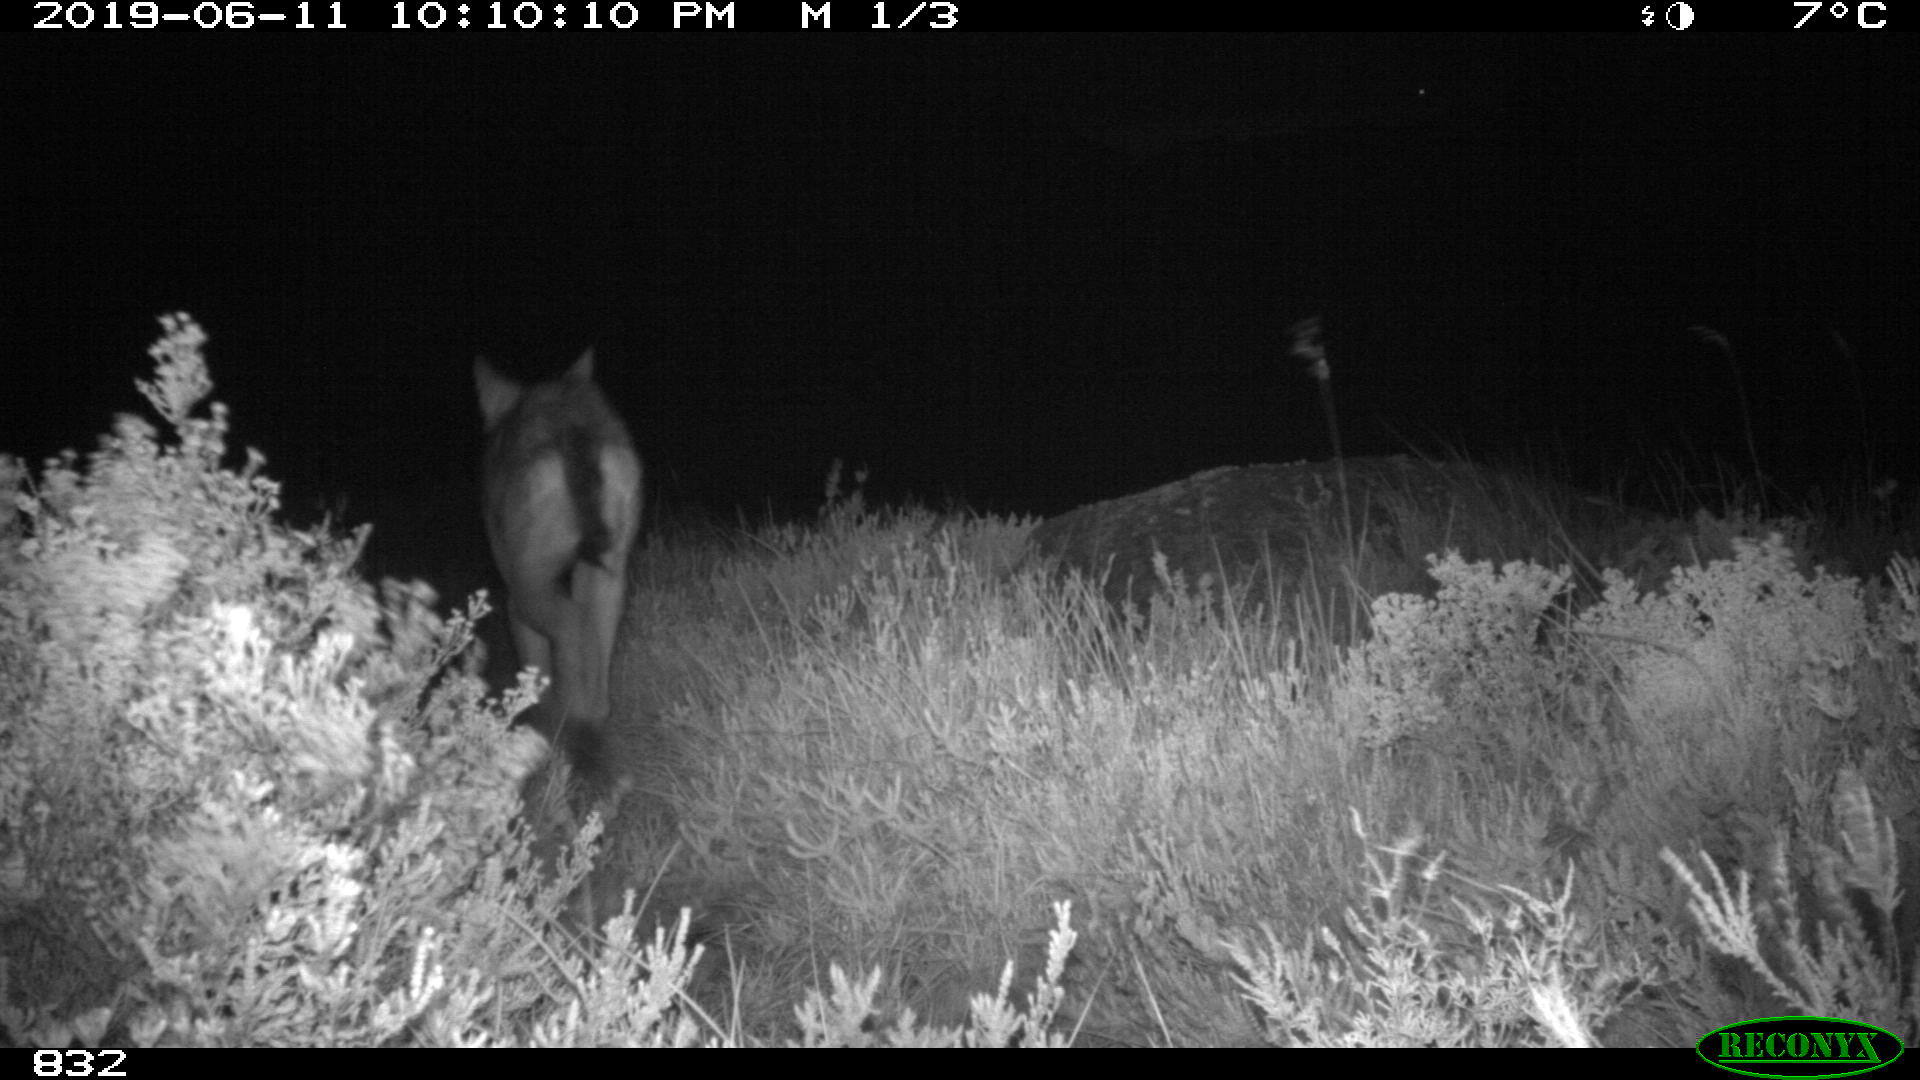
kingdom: Animalia
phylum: Chordata
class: Mammalia
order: Carnivora
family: Canidae
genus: Canis
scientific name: Canis lupus
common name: Gray wolf
